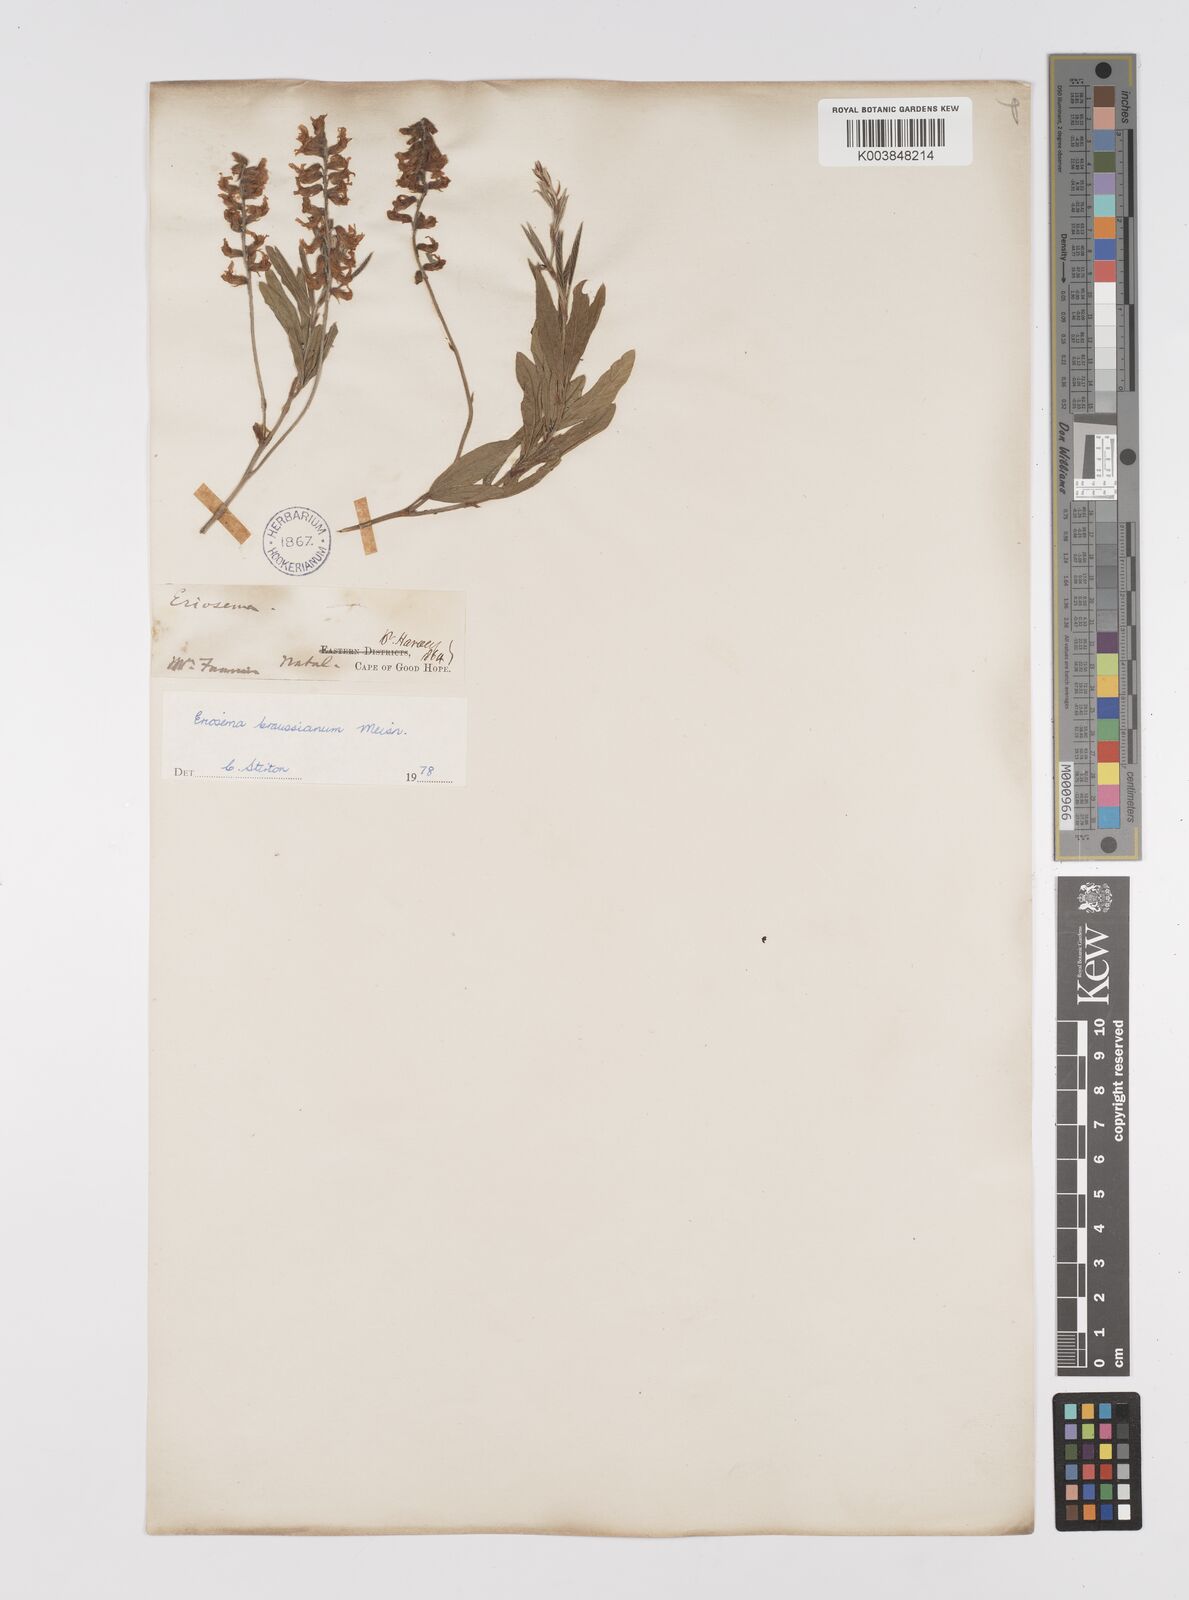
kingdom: Plantae
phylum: Tracheophyta
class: Magnoliopsida
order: Fabales
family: Fabaceae
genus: Eriosema
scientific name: Eriosema kraussianum
